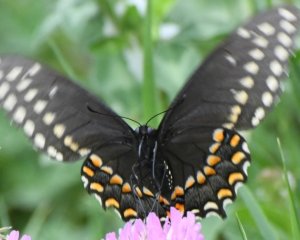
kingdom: Animalia
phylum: Arthropoda
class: Insecta
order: Lepidoptera
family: Papilionidae
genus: Papilio
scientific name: Papilio polyxenes
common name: Black Swallowtail
